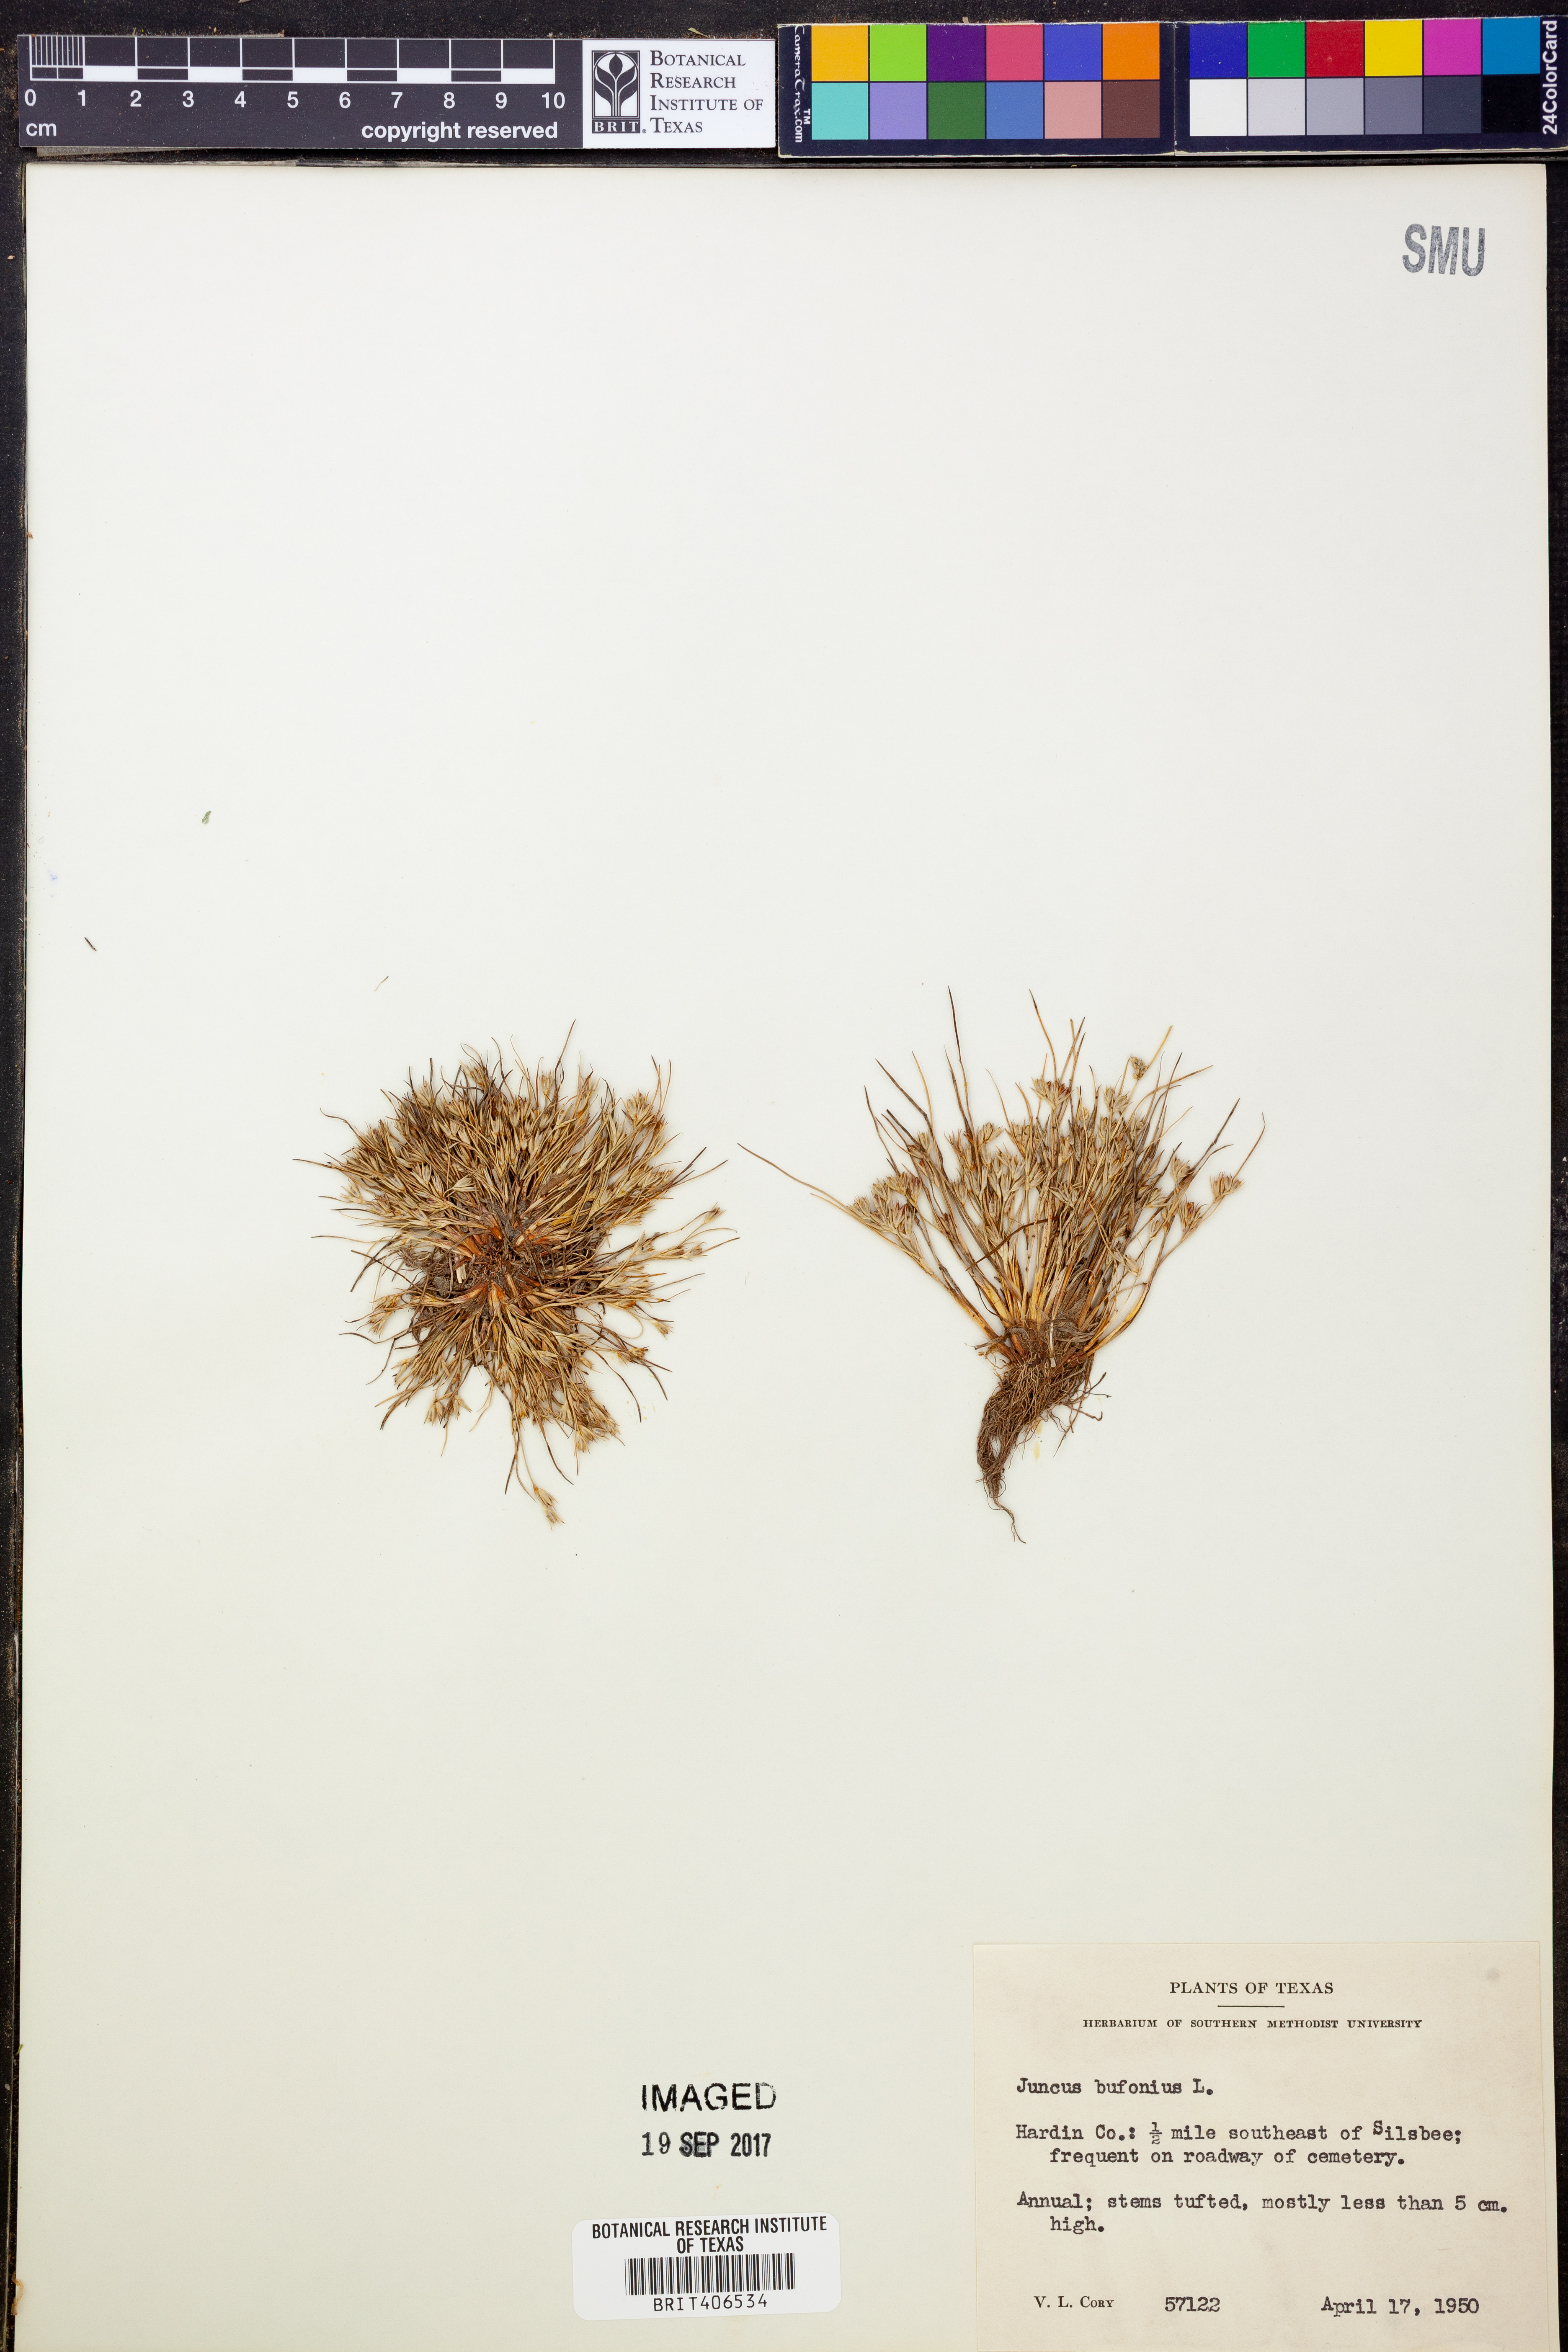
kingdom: Plantae
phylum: Tracheophyta
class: Liliopsida
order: Poales
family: Juncaceae
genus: Juncus
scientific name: Juncus bufonius
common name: Toad rush
